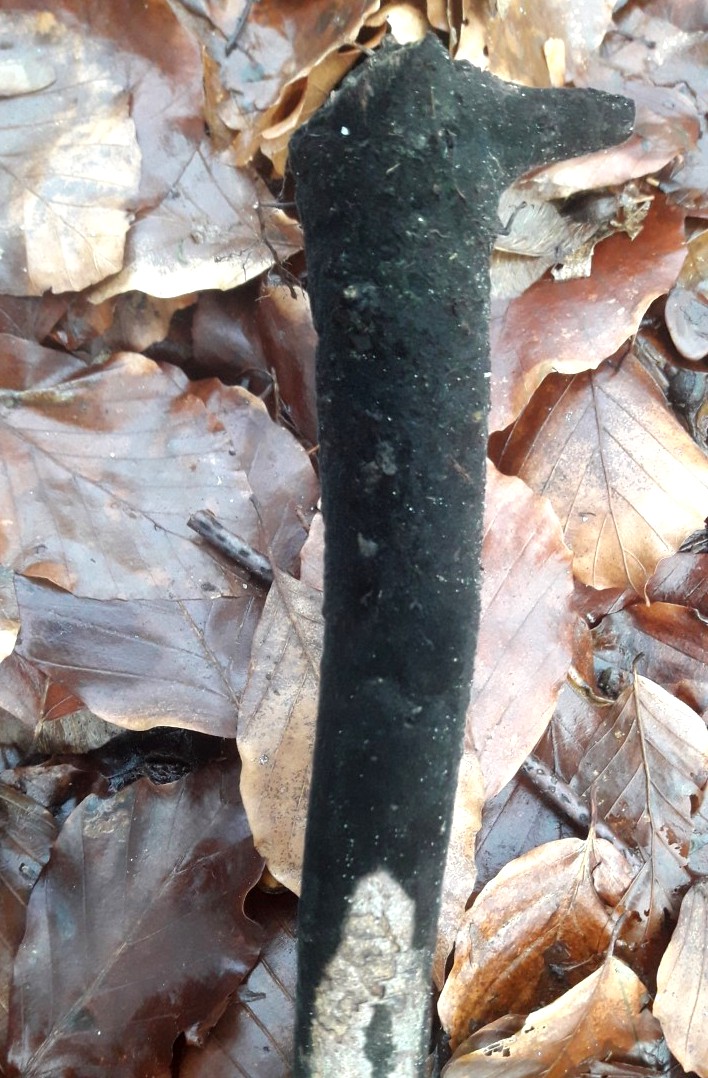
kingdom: Fungi
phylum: Ascomycota
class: Dothideomycetes
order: Pleosporales
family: Massarinaceae
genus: Helminthosporium
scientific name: Helminthosporium velutinum
